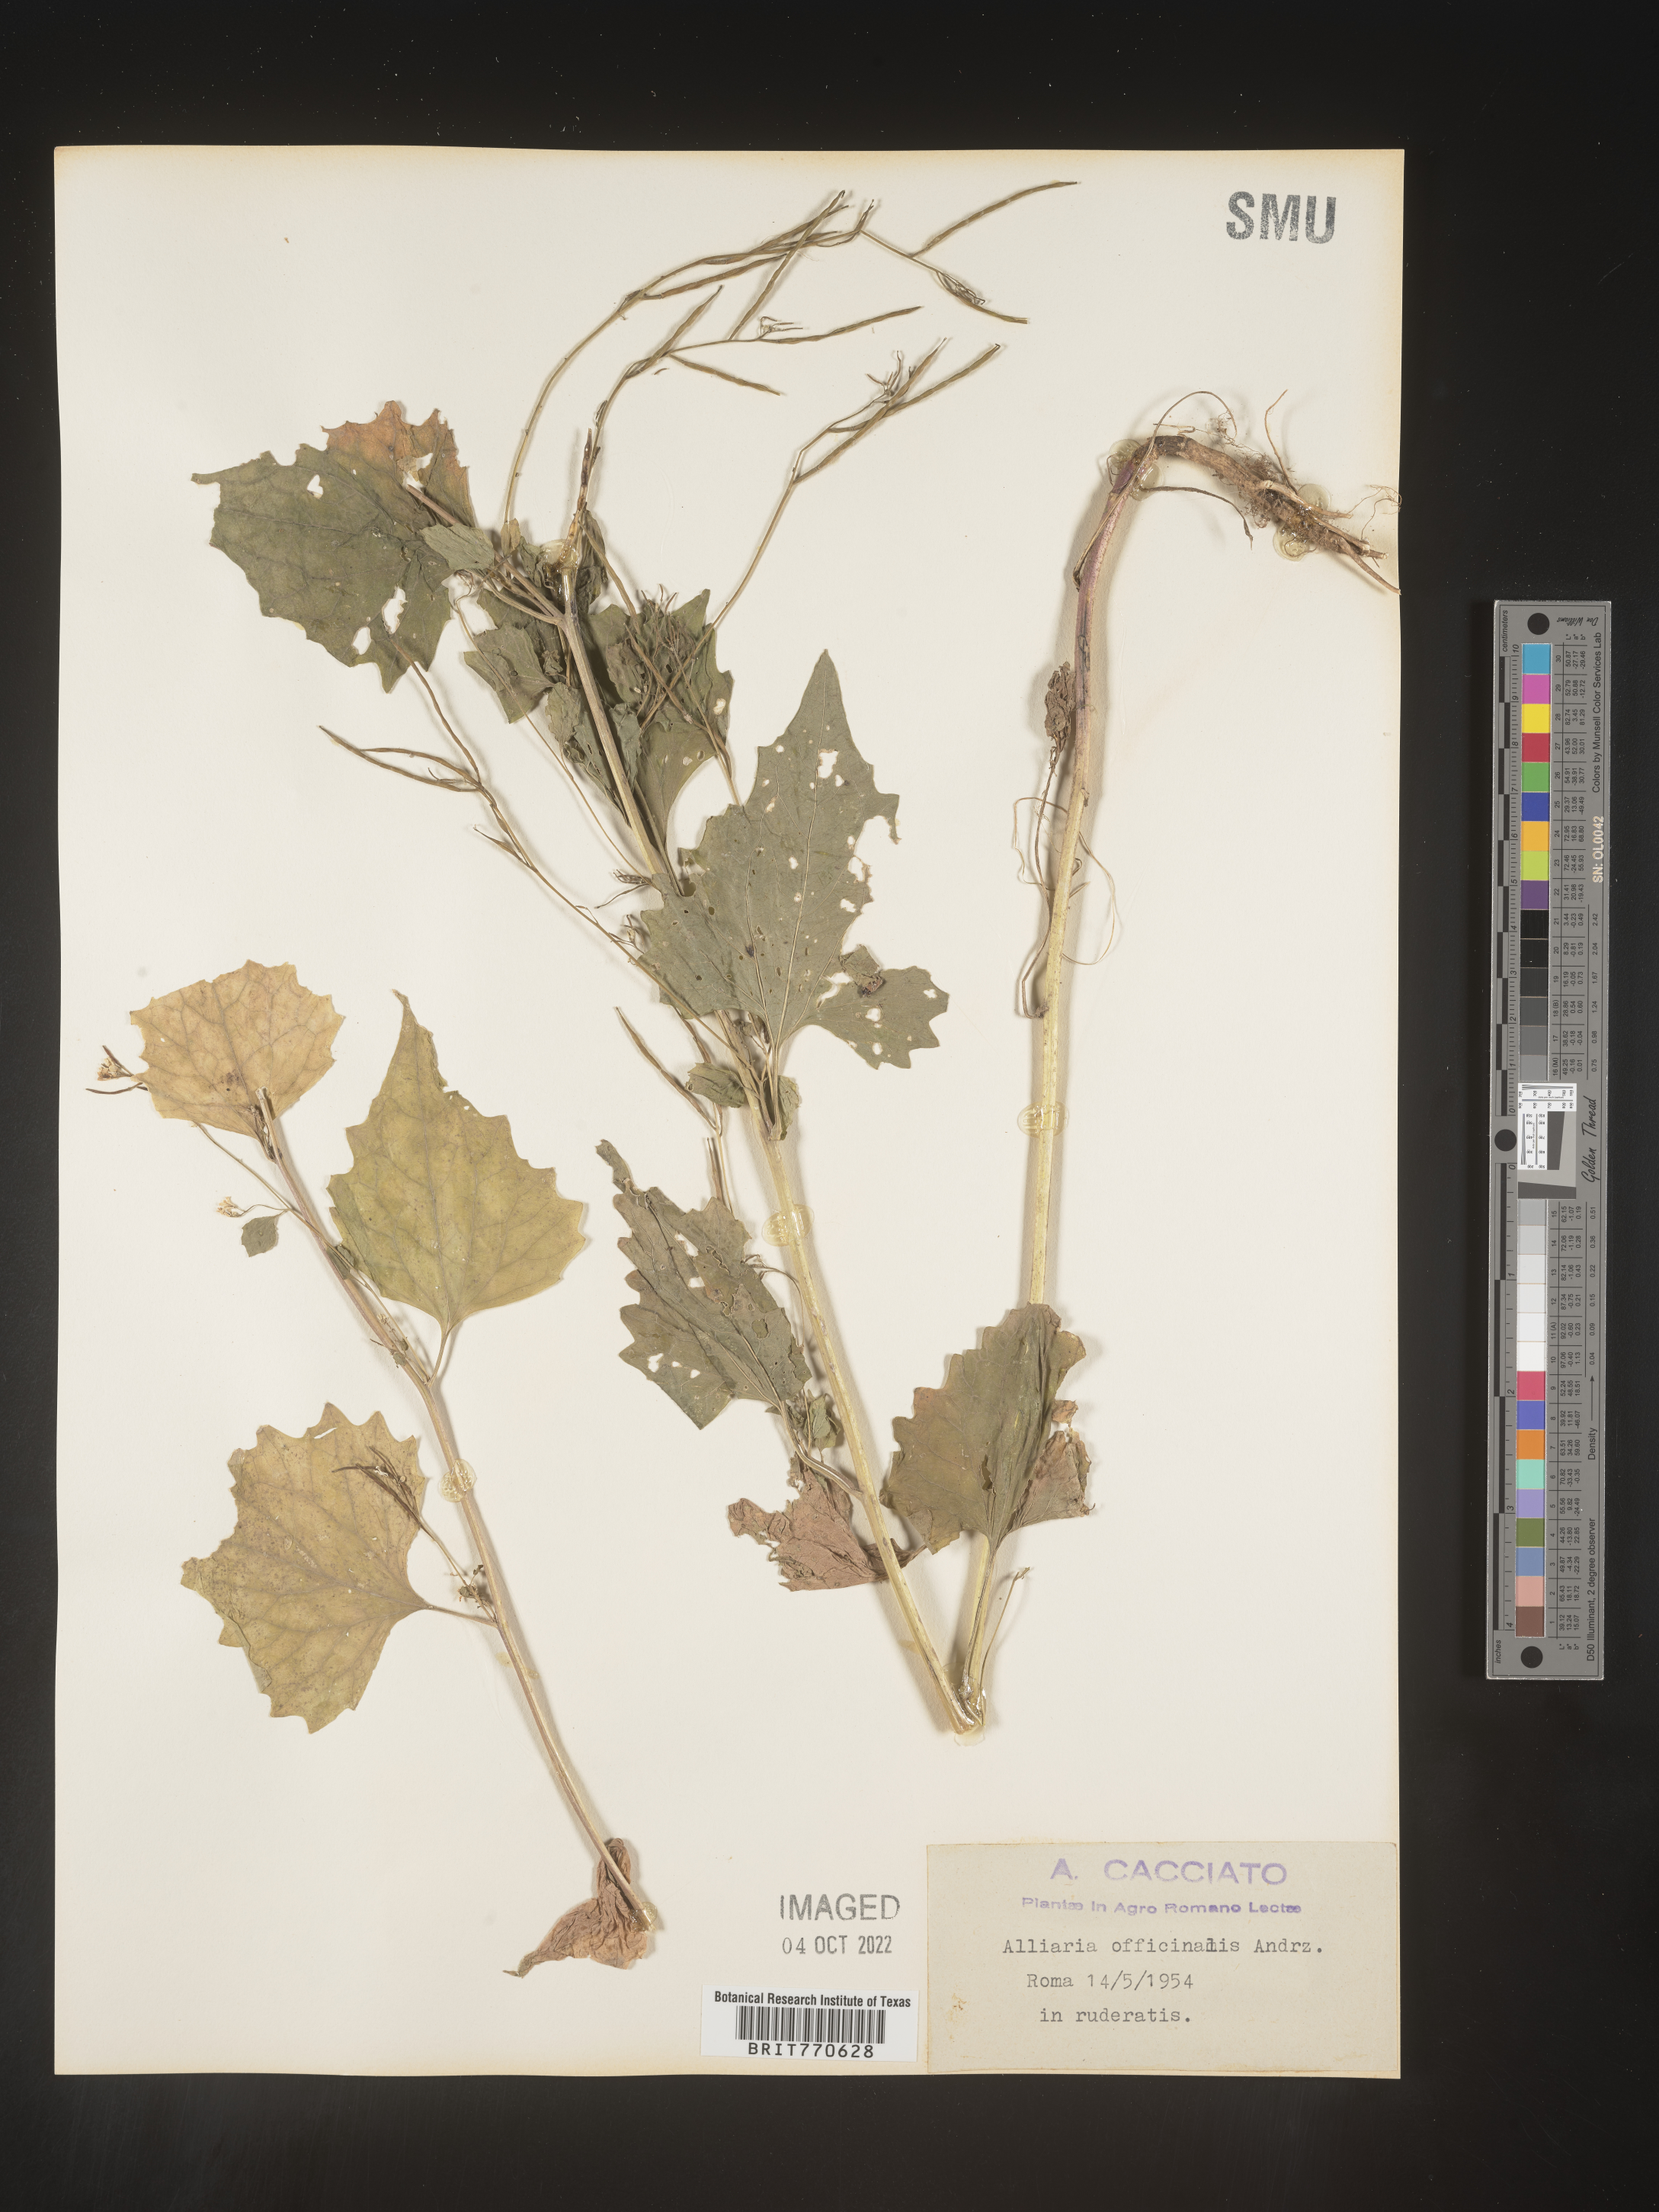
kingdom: Plantae
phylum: Tracheophyta
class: Magnoliopsida
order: Brassicales
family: Brassicaceae
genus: Alliaria
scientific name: Alliaria
